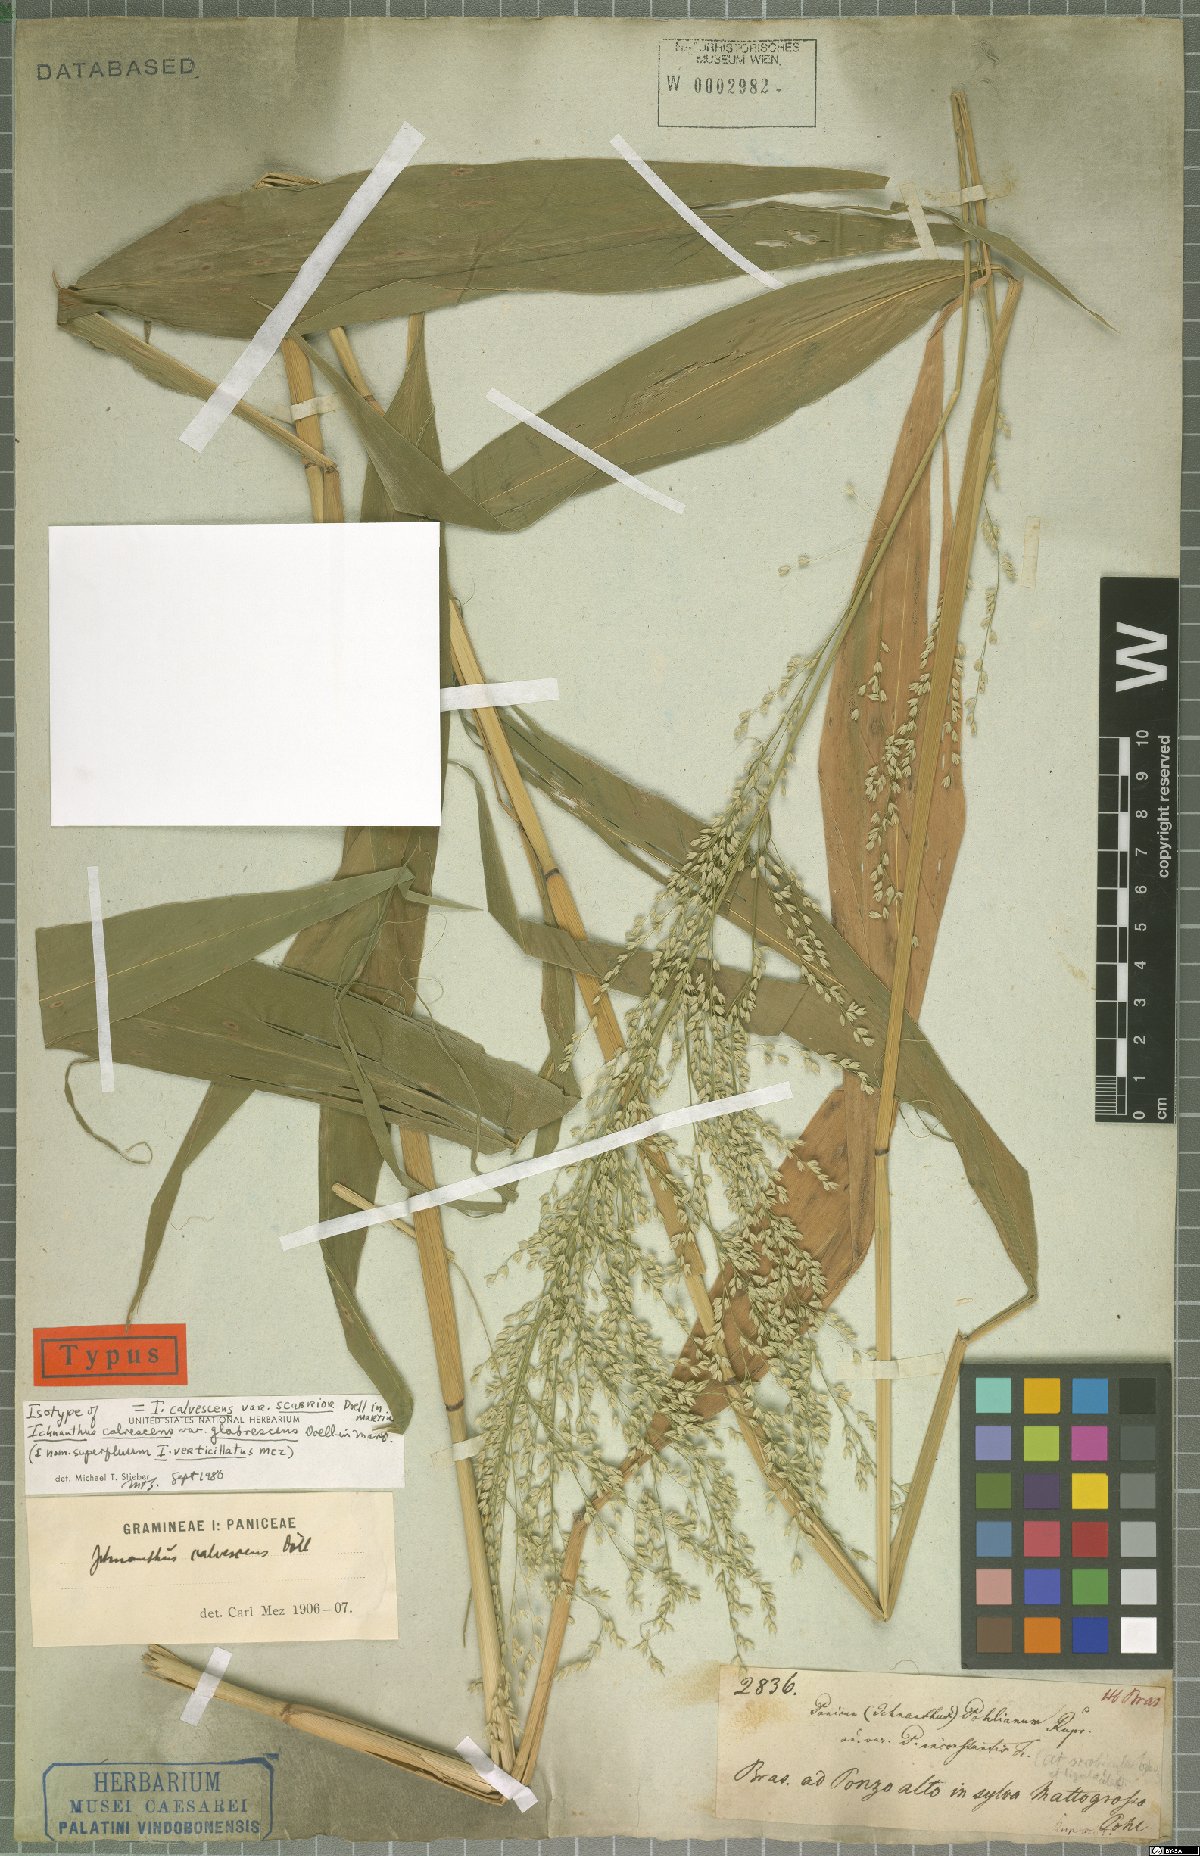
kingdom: Plantae
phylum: Tracheophyta
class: Liliopsida
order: Poales
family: Poaceae
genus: Ichnanthus
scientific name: Ichnanthus calvescens
